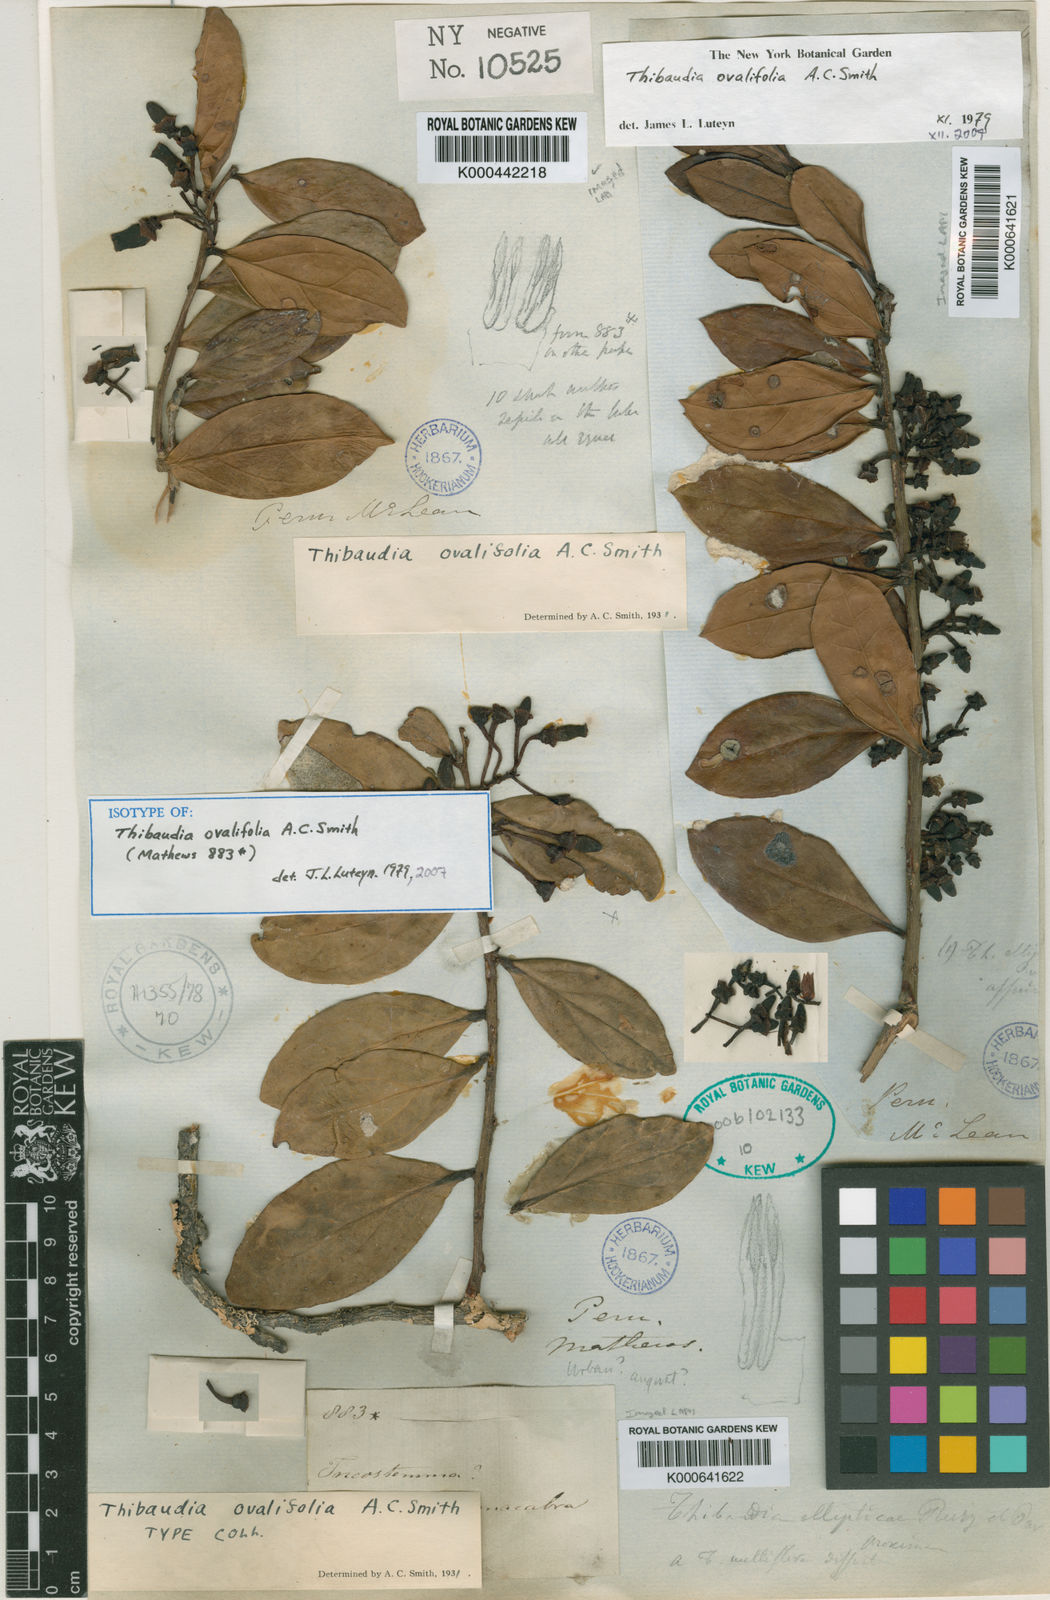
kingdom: Plantae
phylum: Tracheophyta
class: Magnoliopsida
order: Ericales
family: Ericaceae
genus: Thibaudia
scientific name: Thibaudia ovalifolia
